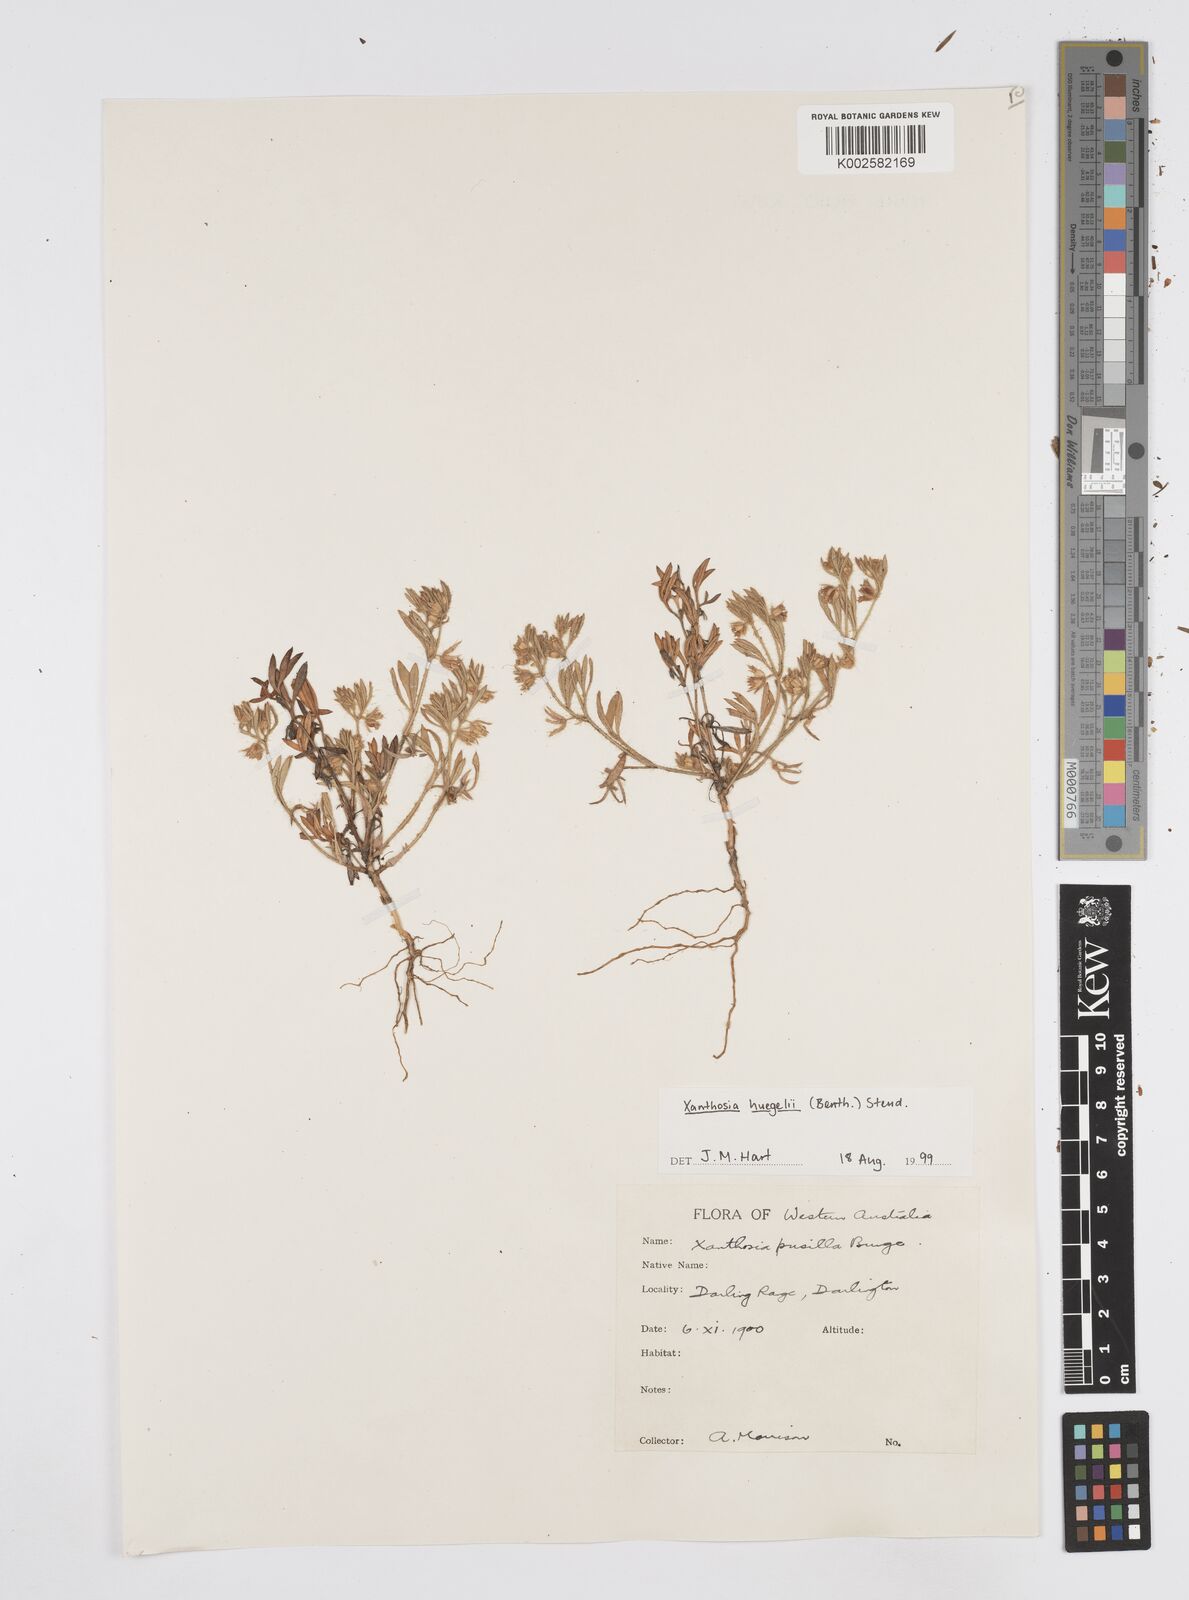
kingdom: Plantae
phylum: Tracheophyta
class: Magnoliopsida
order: Apiales
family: Apiaceae
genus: Xanthosia
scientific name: Xanthosia huegelii
